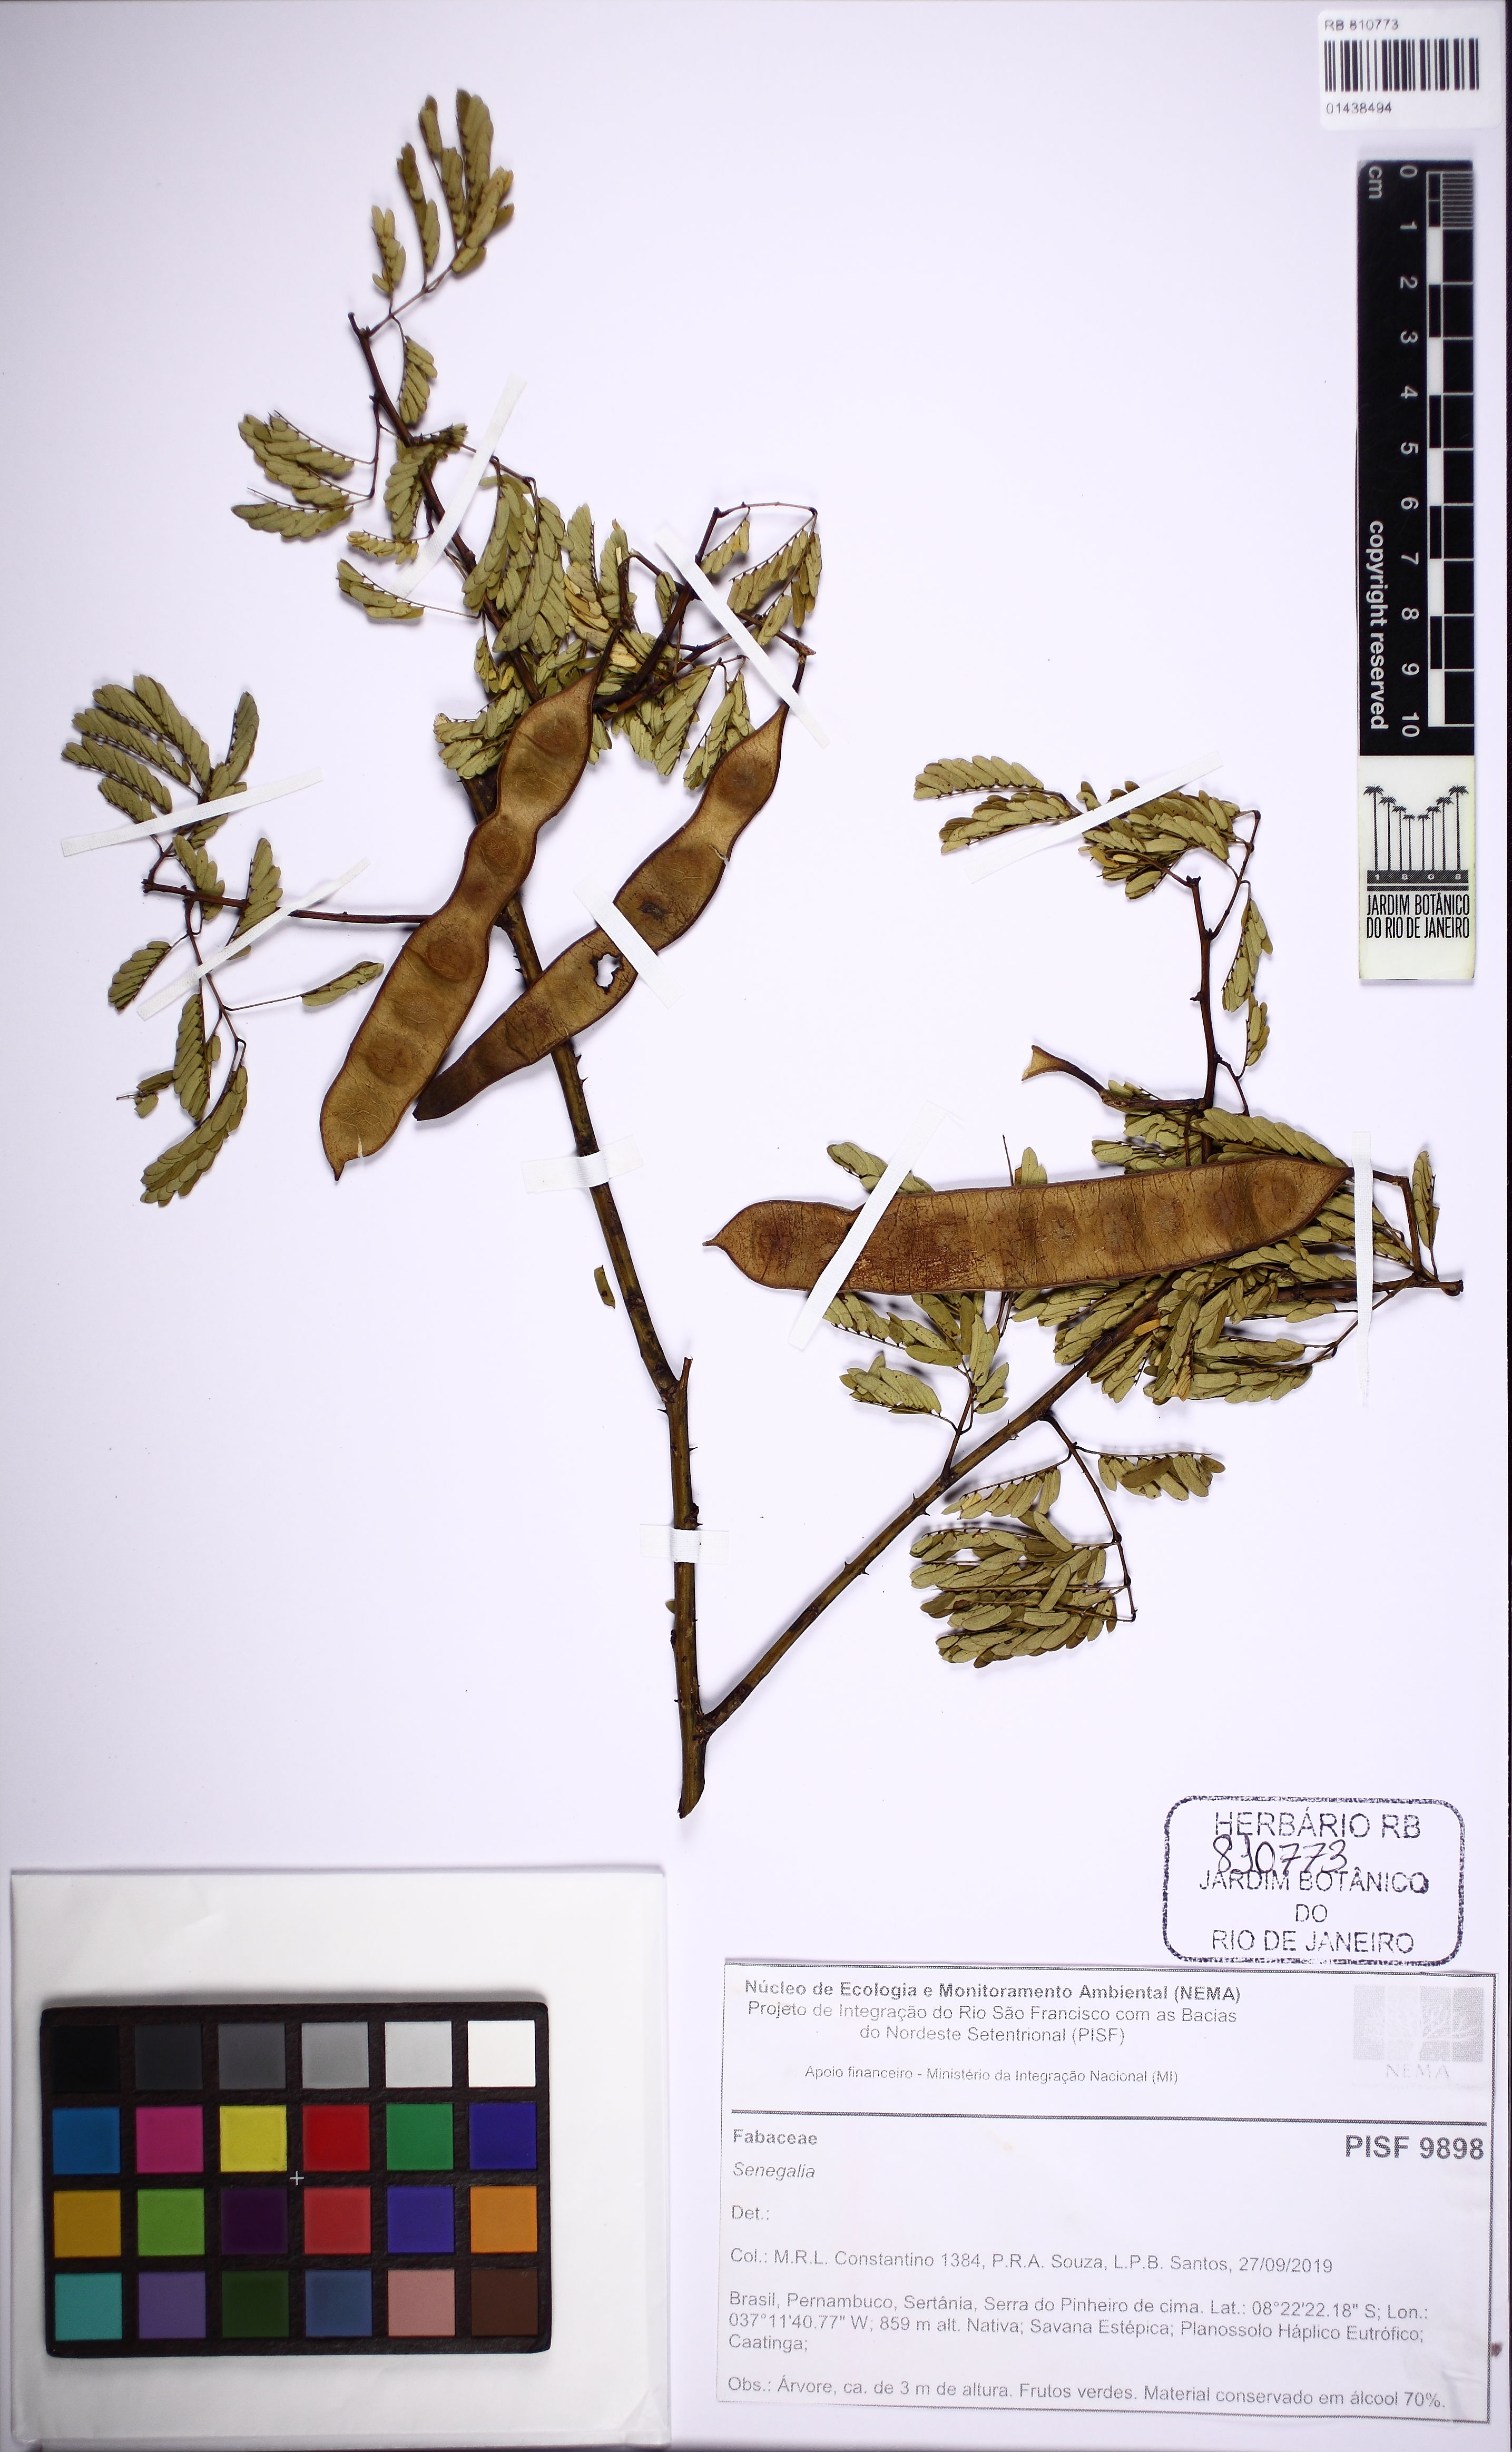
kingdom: Plantae
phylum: Tracheophyta
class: Magnoliopsida
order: Fabales
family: Fabaceae
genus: Senegalia
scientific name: Senegalia
